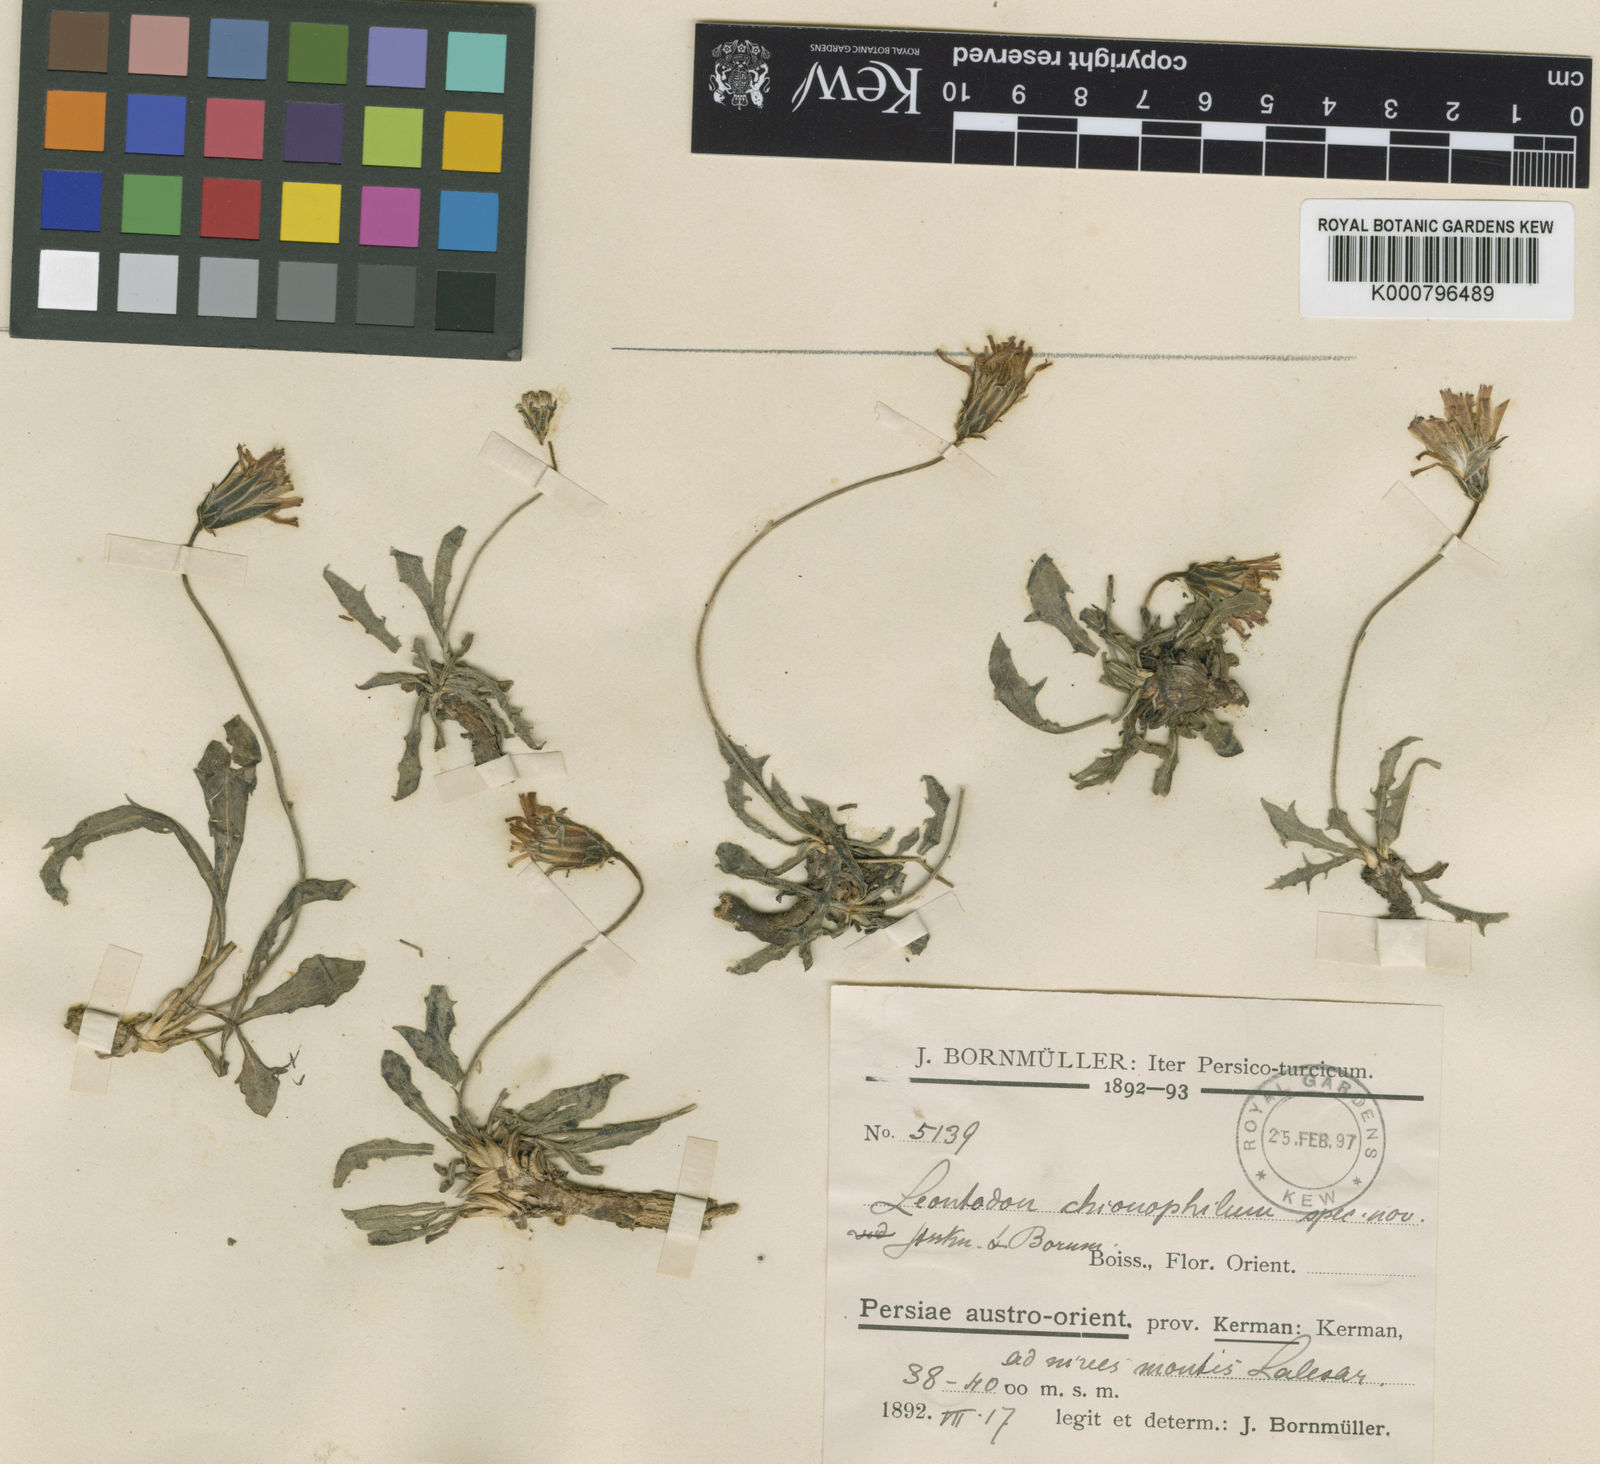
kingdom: Plantae
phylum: Tracheophyta
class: Magnoliopsida
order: Asterales
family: Asteraceae
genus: Leontodon
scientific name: Leontodon libanoticus
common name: Lebanon hawkbit
